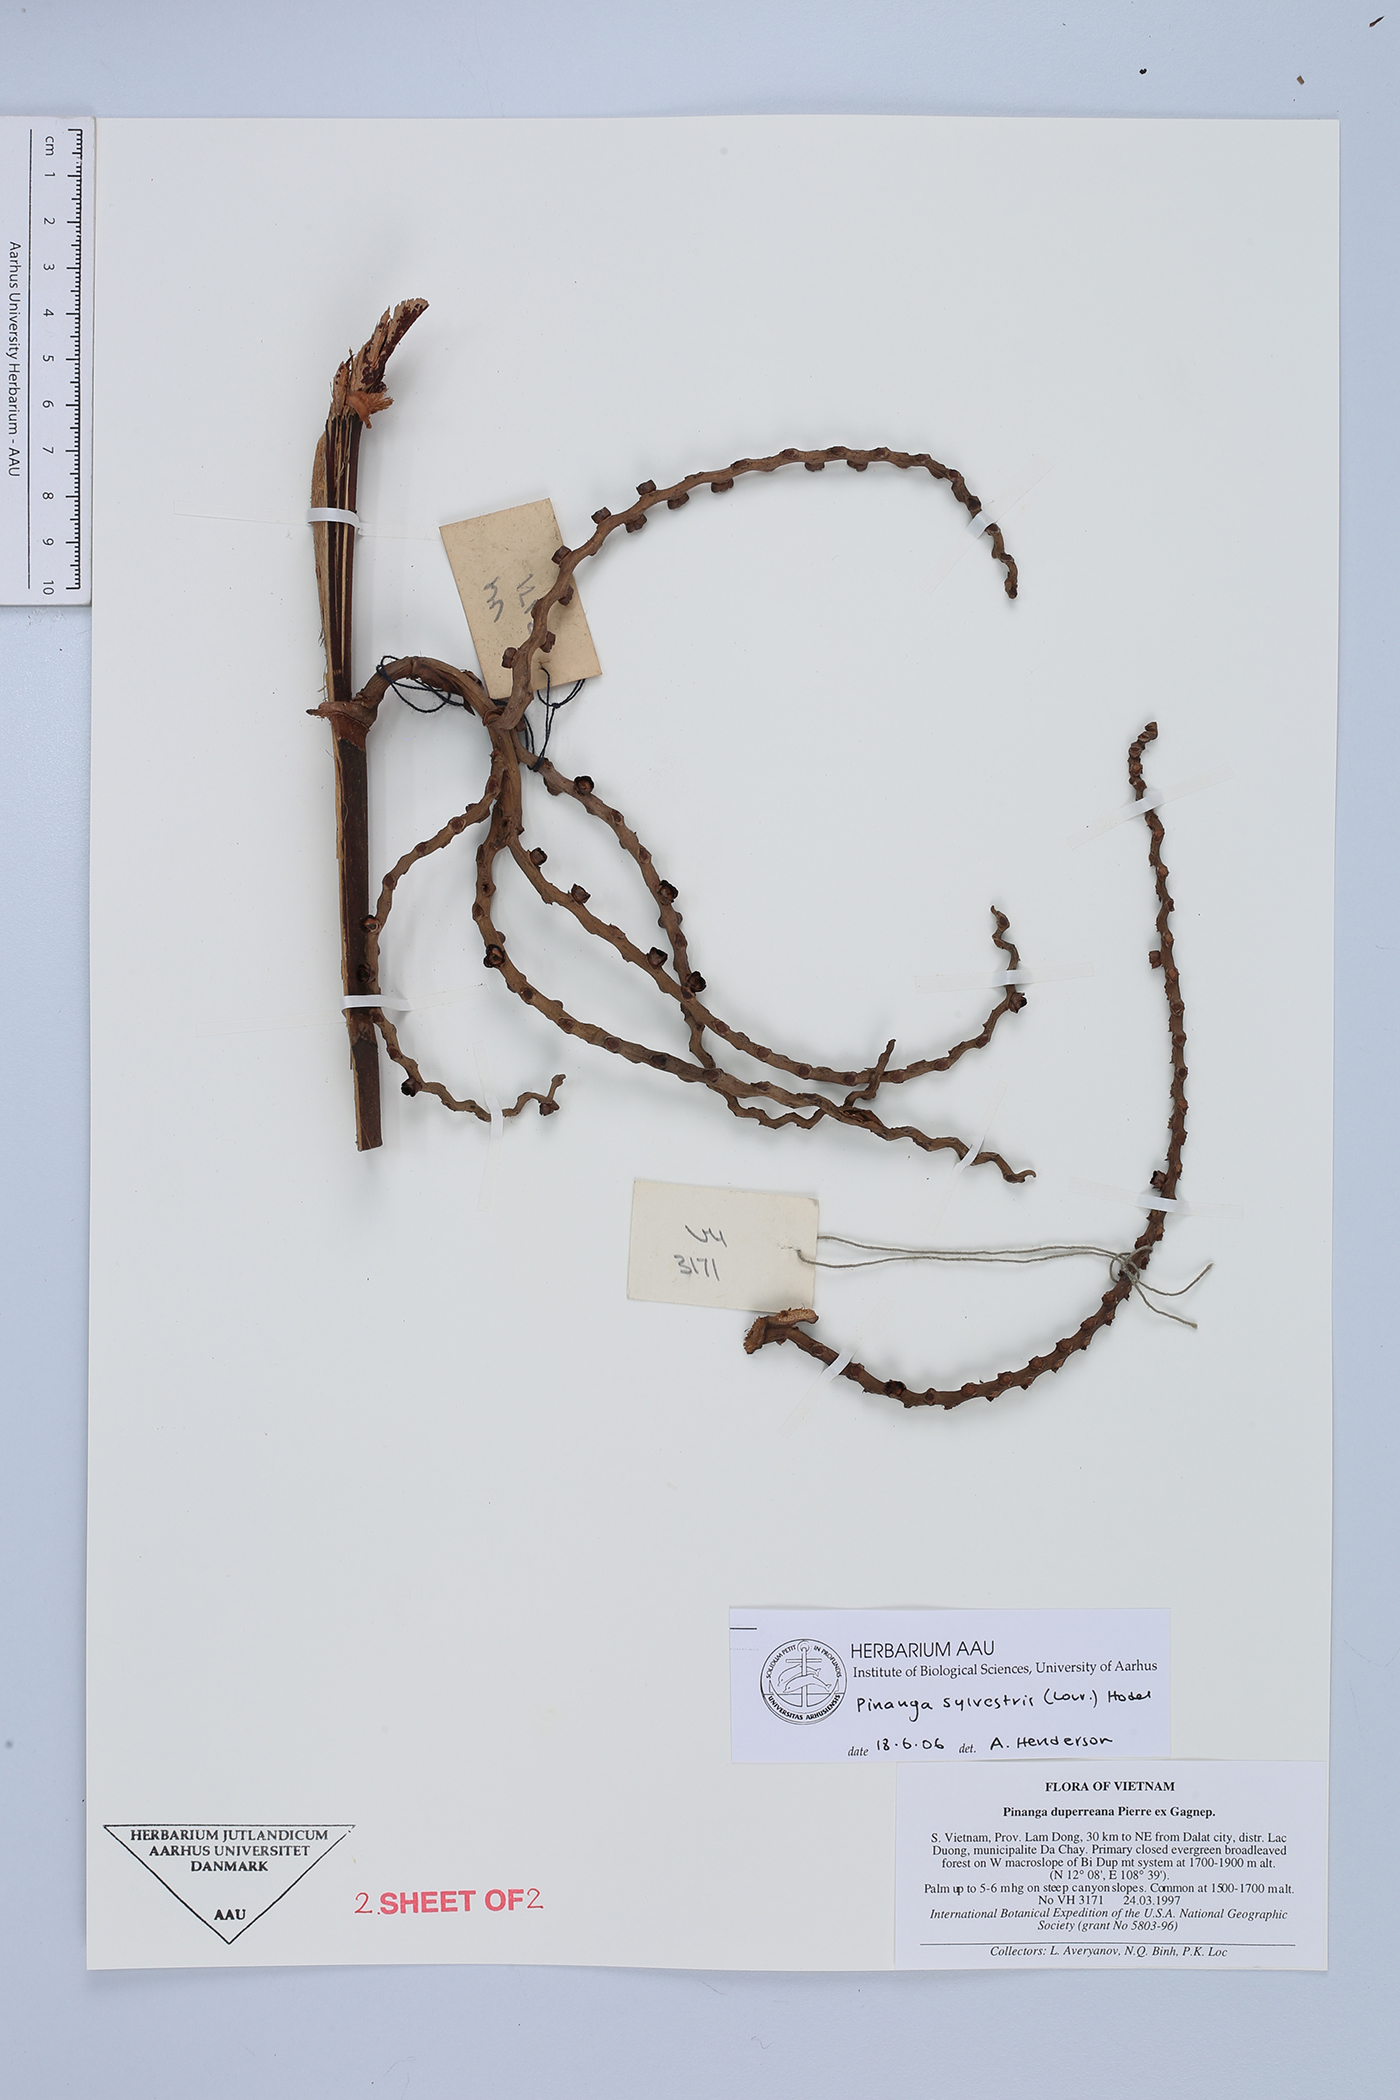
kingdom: Plantae
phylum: Tracheophyta
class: Liliopsida
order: Arecales
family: Arecaceae
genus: Pinanga
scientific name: Pinanga sylvestris
